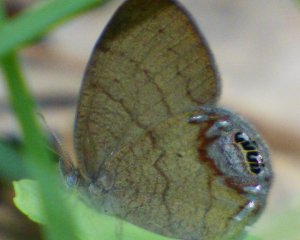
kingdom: Animalia
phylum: Arthropoda
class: Insecta
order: Lepidoptera
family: Nymphalidae
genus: Euptychia
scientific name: Euptychia cornelius
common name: Gemmed Satyr
